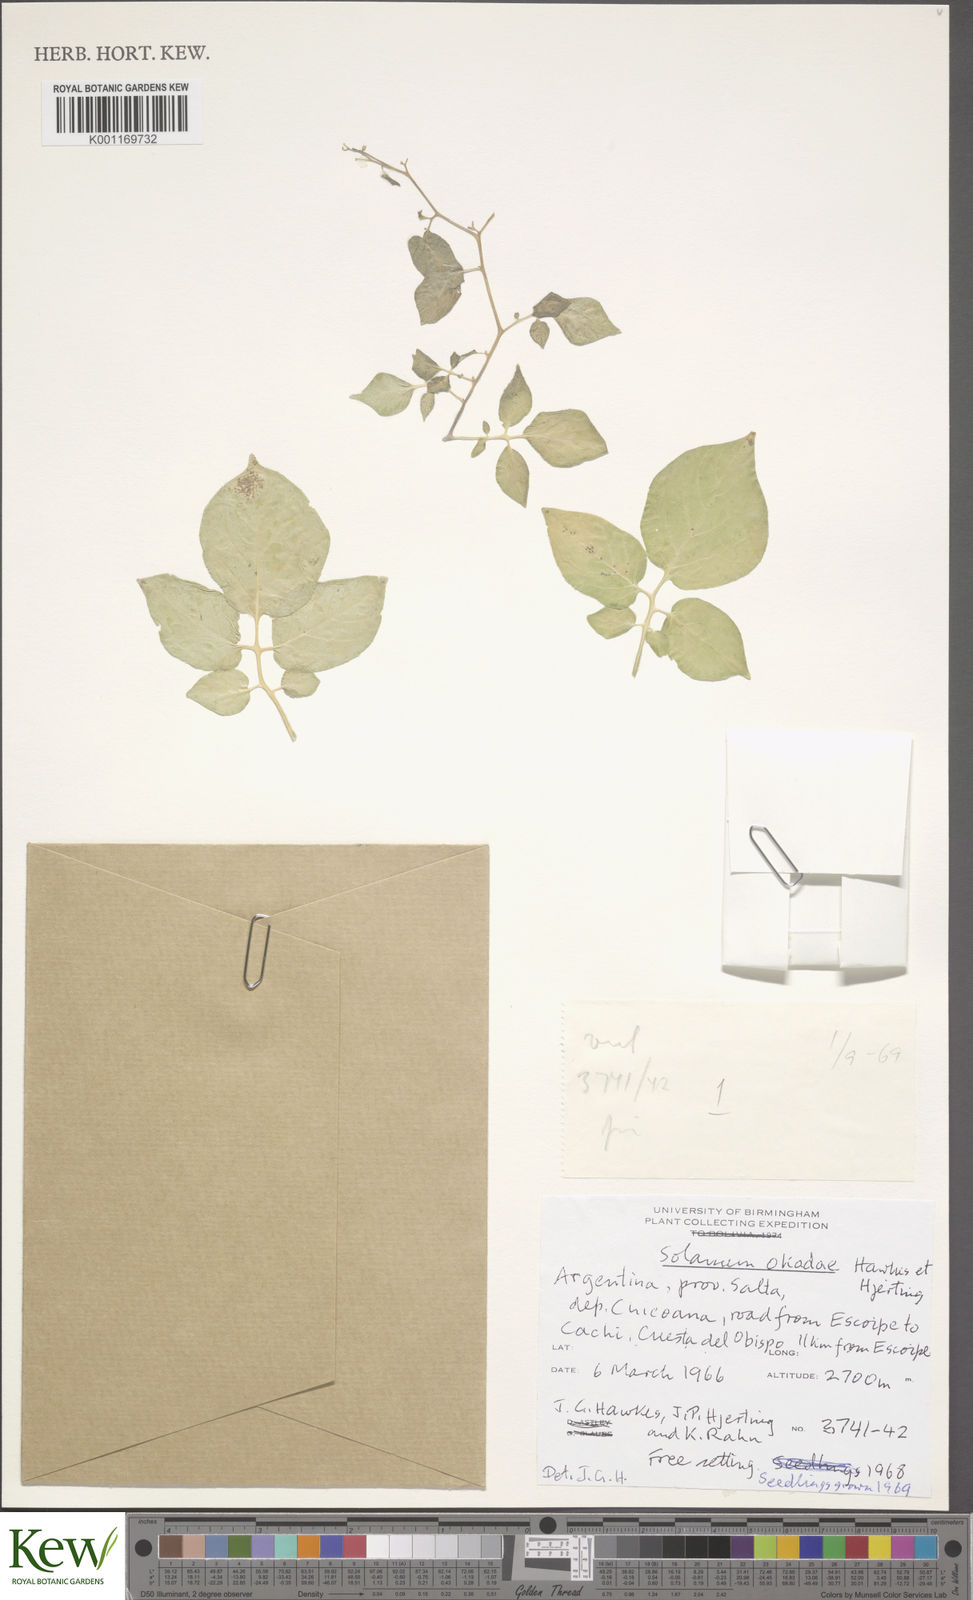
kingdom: Plantae
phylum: Tracheophyta
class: Magnoliopsida
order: Solanales
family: Solanaceae
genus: Solanum
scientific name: Solanum okadae
